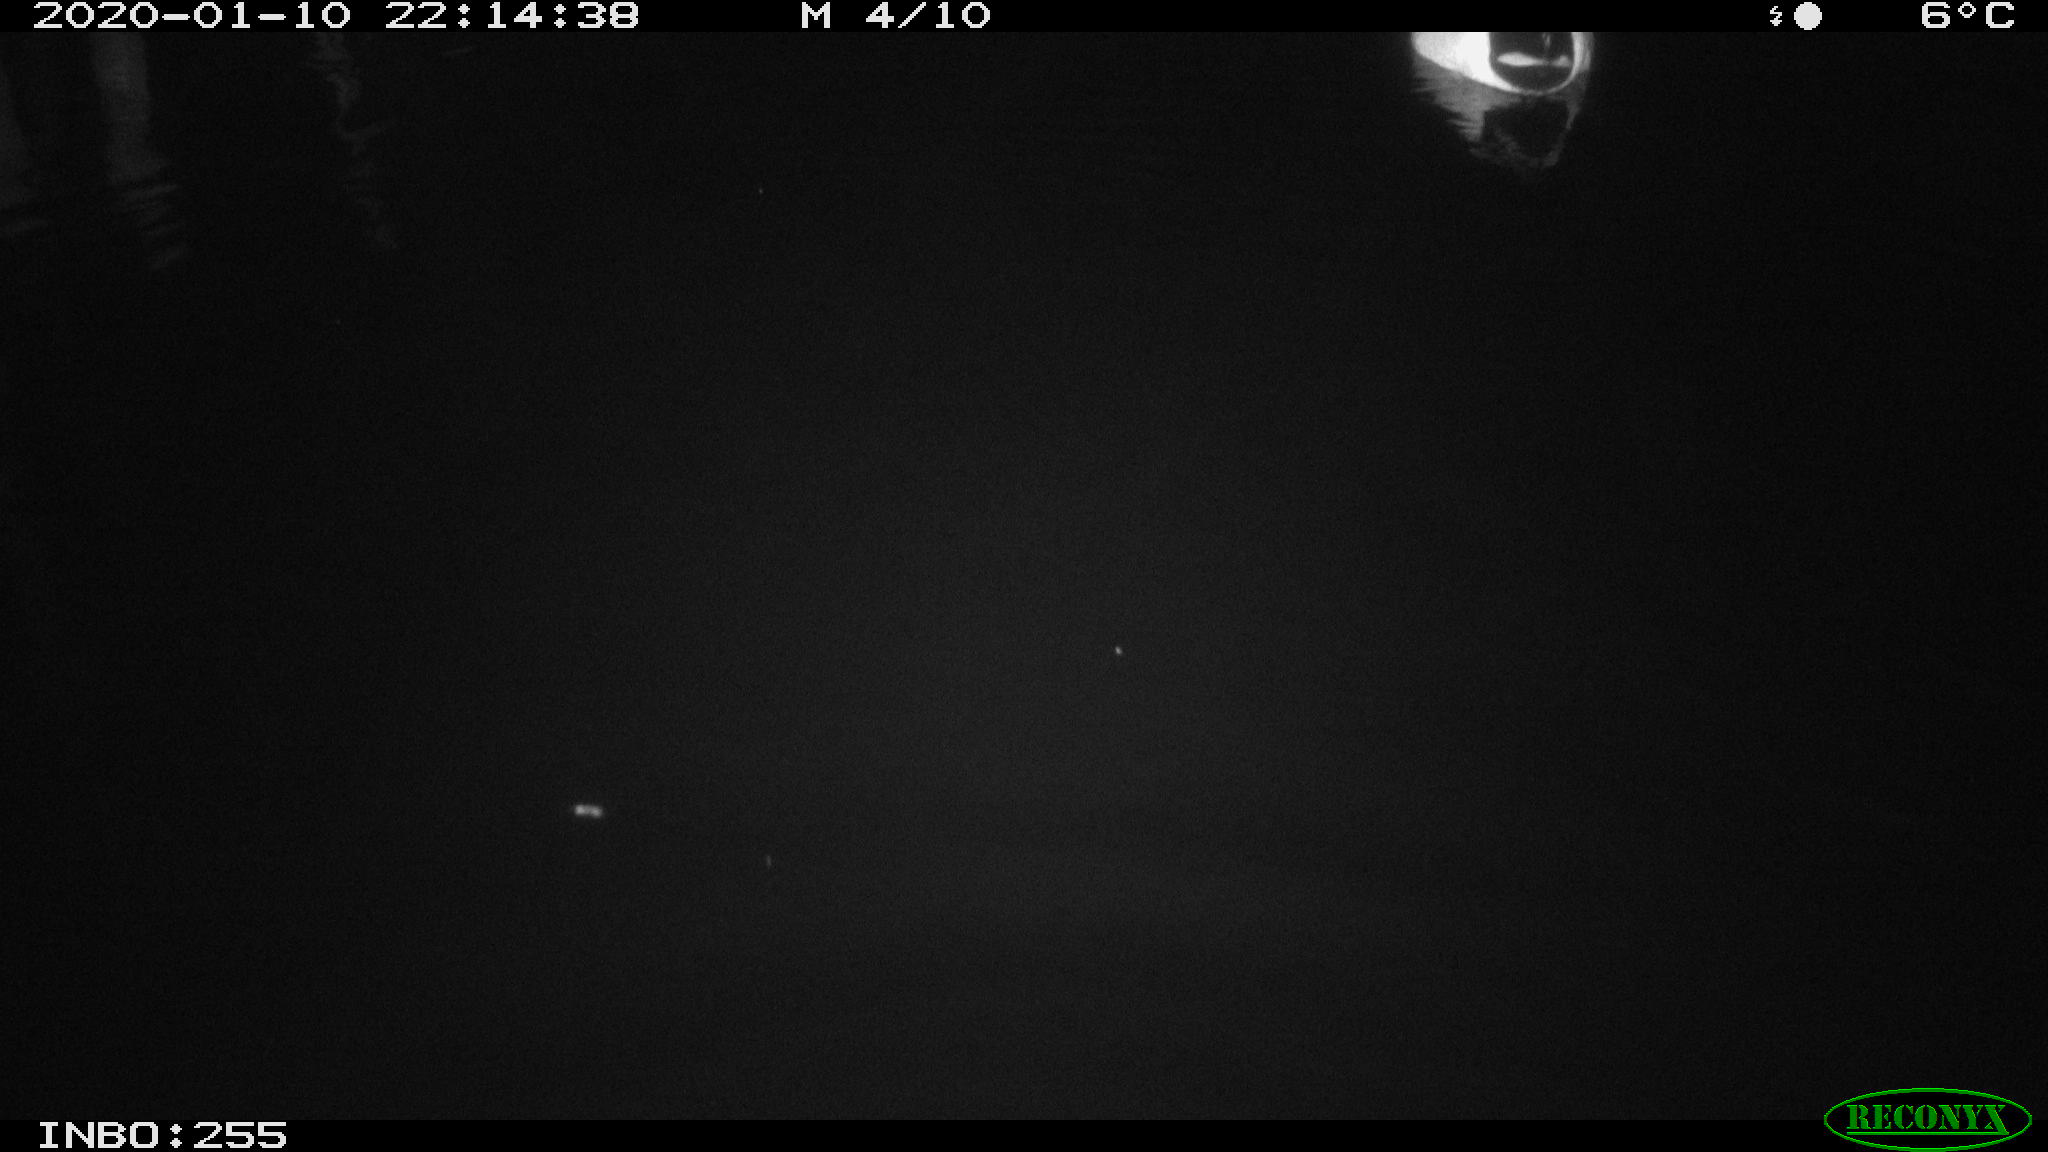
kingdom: Animalia
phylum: Chordata
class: Aves
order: Anseriformes
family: Anatidae
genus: Anas
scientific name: Anas platyrhynchos
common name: Mallard
